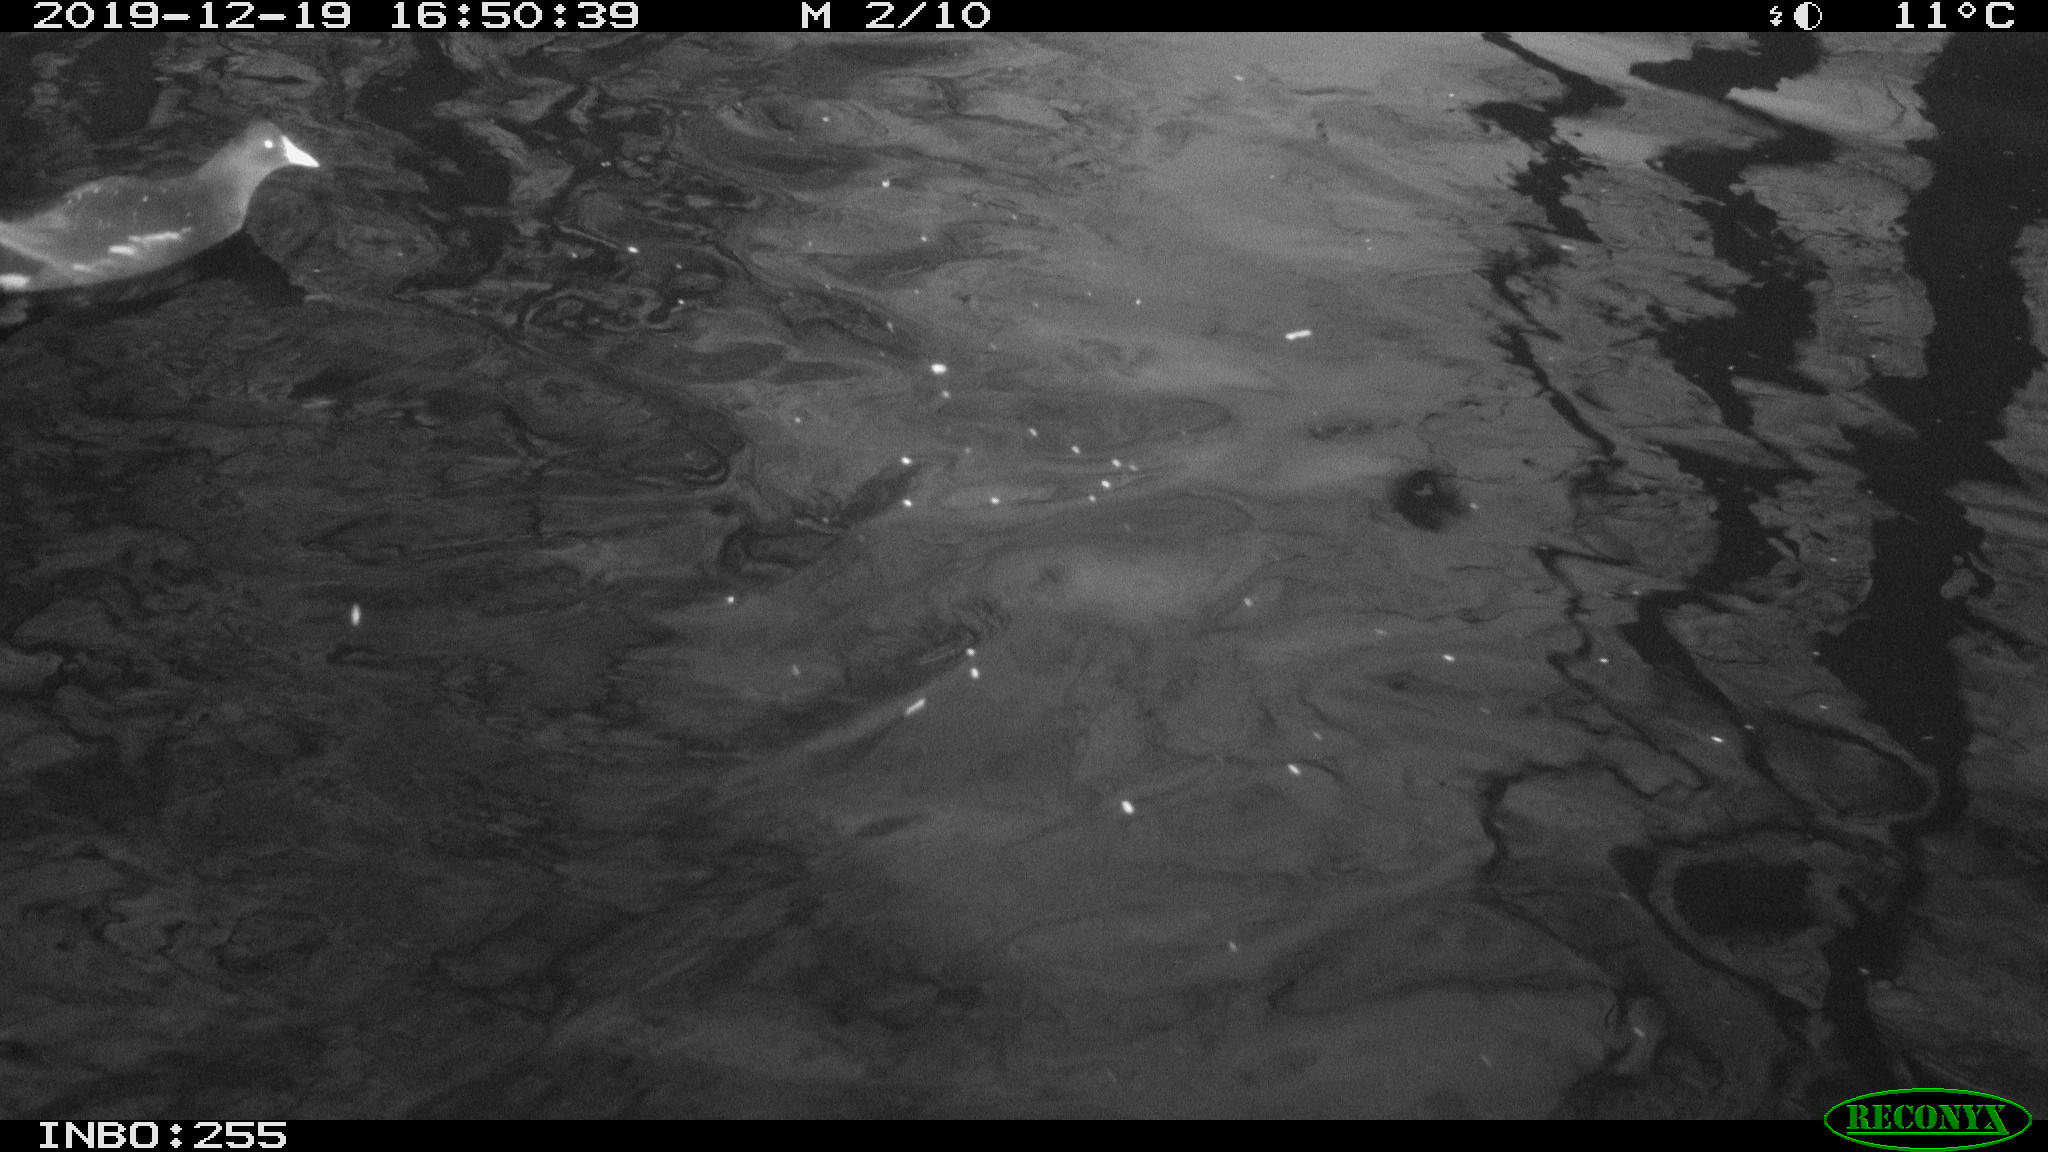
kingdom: Animalia
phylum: Chordata
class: Aves
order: Gruiformes
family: Rallidae
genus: Gallinula
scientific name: Gallinula chloropus
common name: Common moorhen
